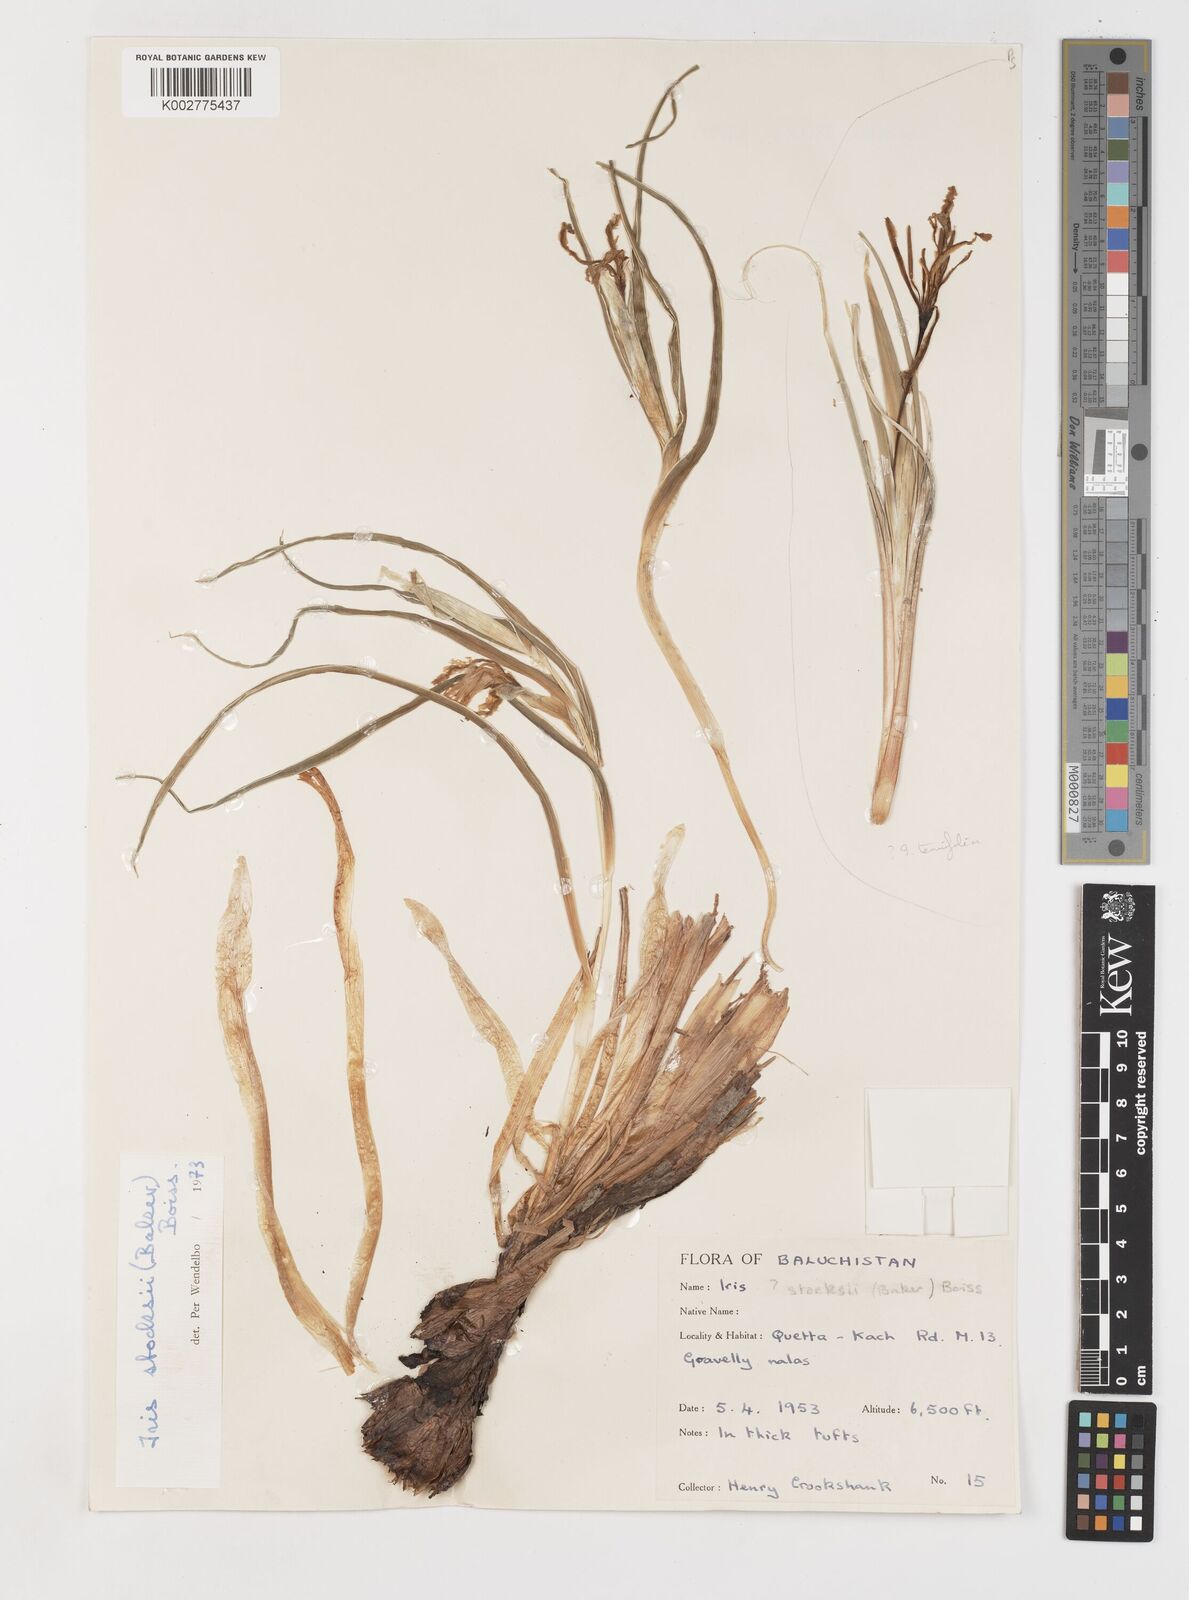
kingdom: Plantae
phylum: Tracheophyta
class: Liliopsida
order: Asparagales
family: Iridaceae
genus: Iris
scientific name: Iris stocksii
